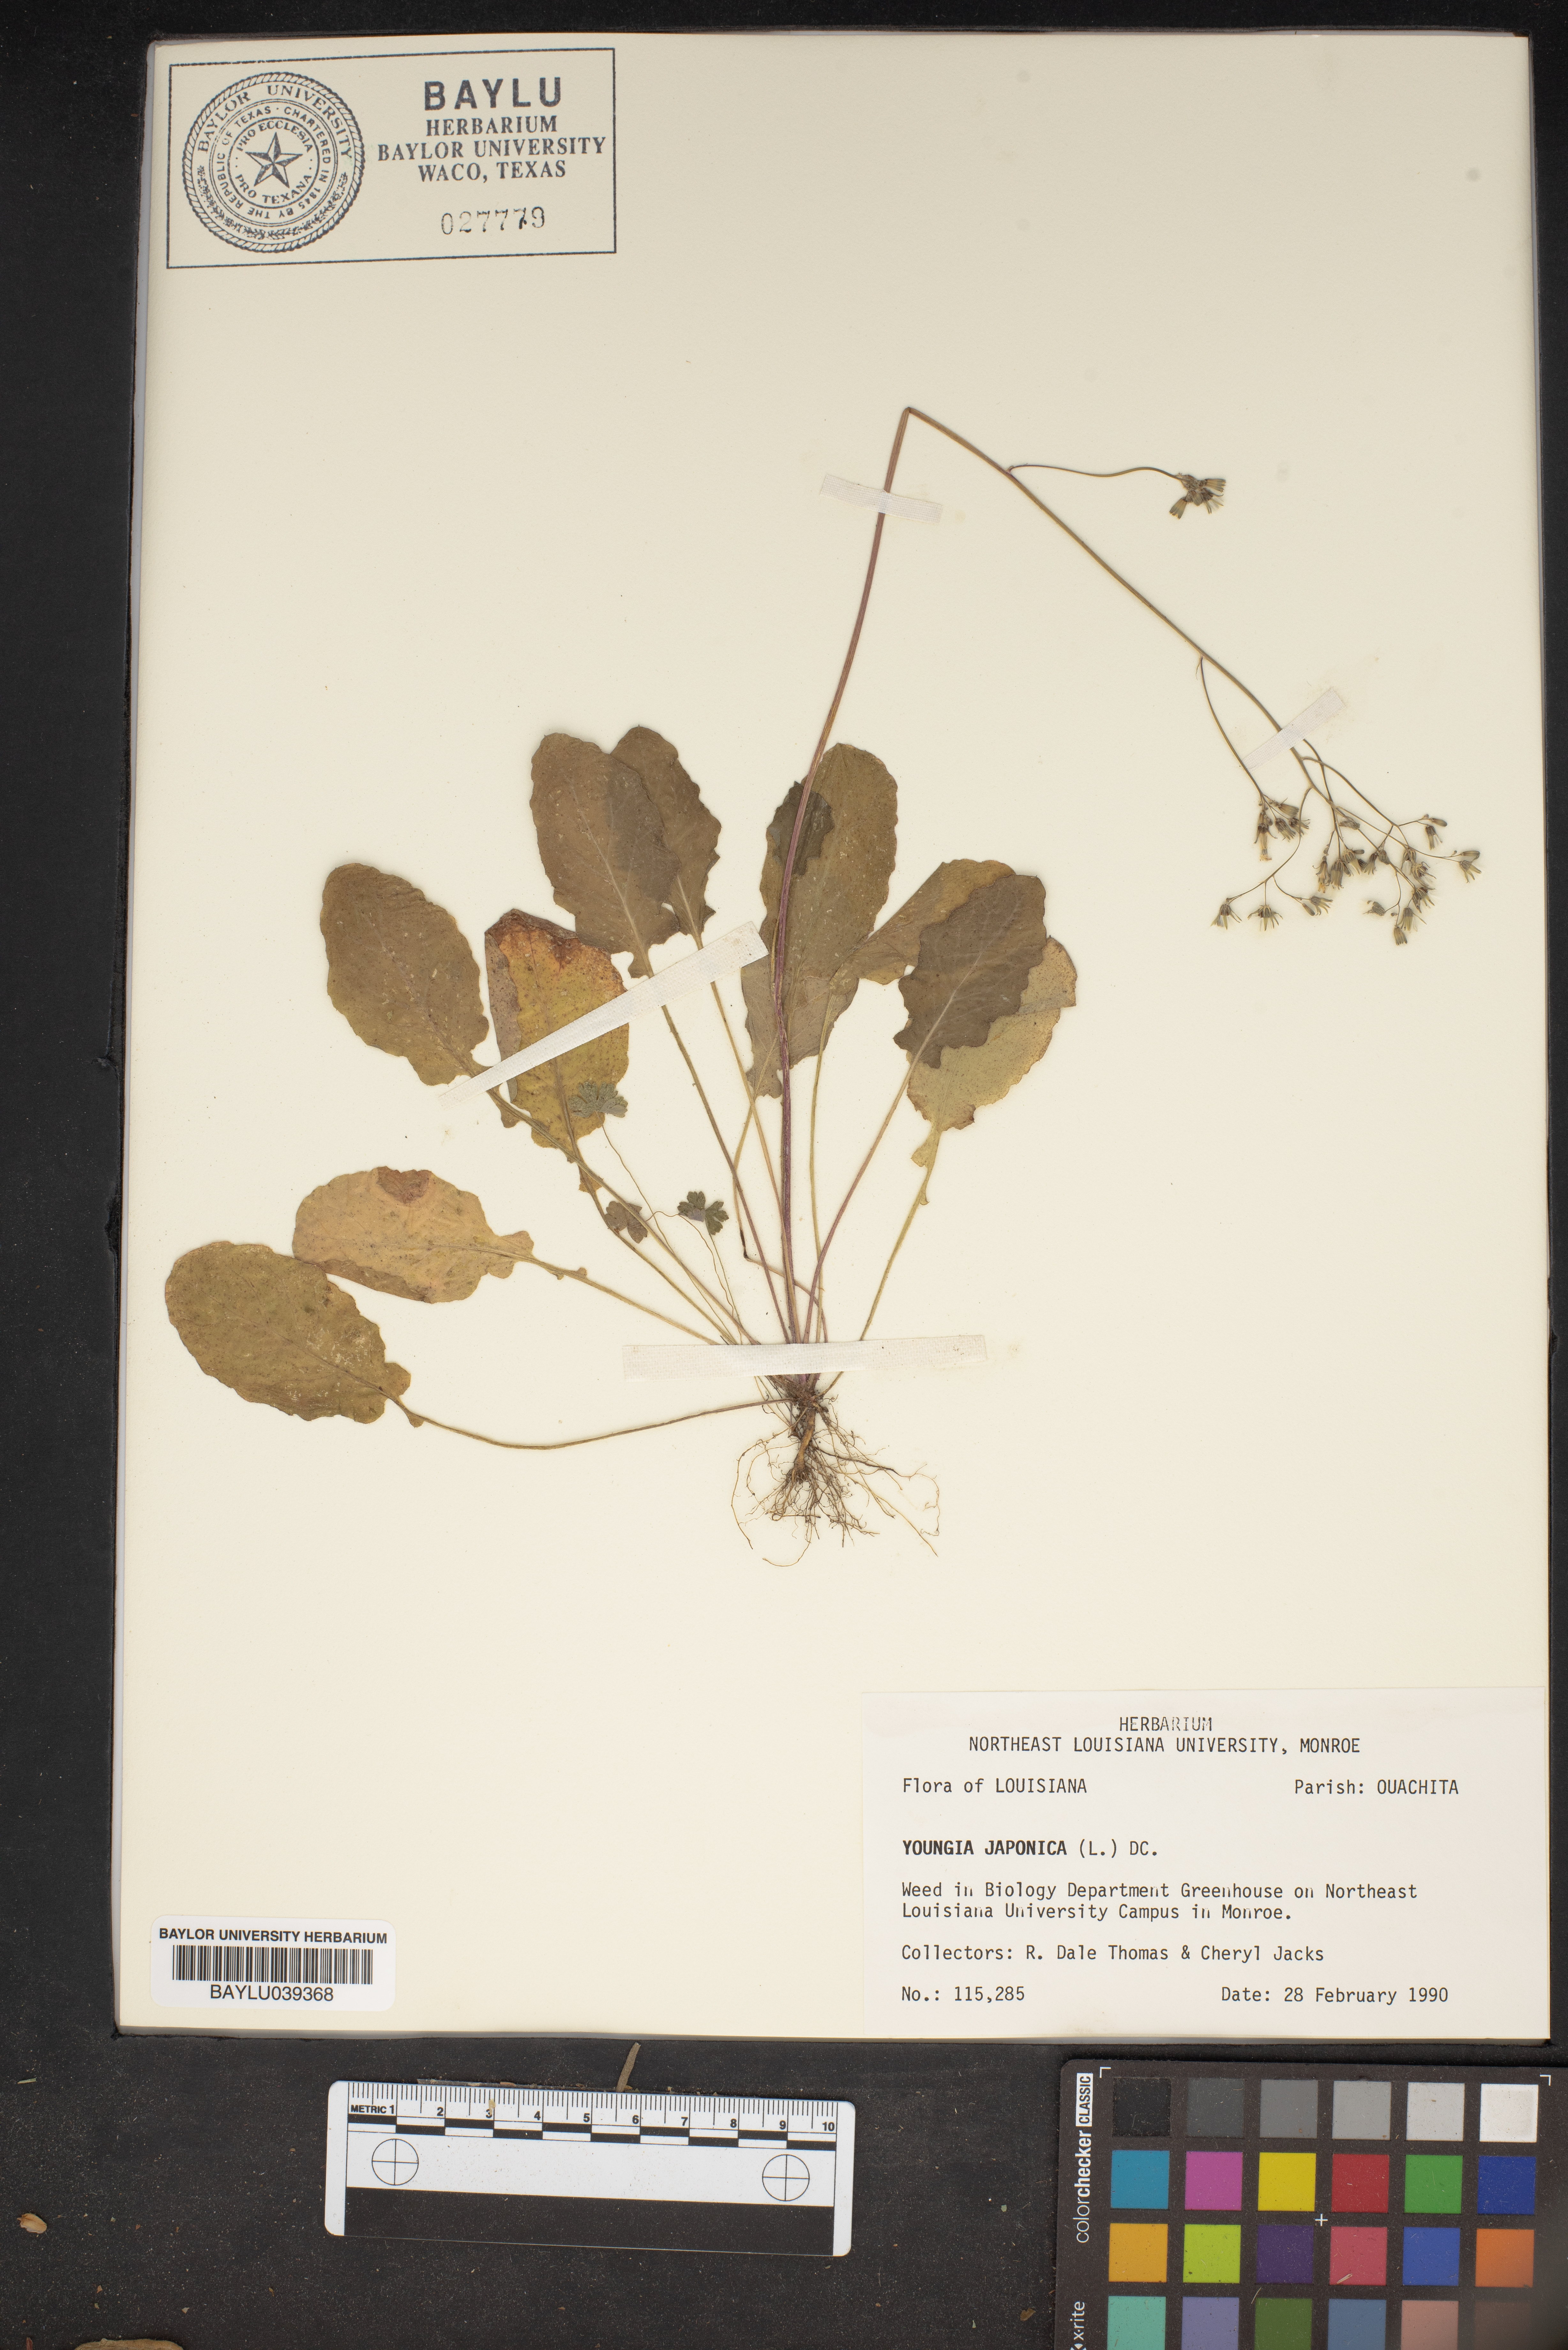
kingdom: Plantae
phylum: Tracheophyta
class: Magnoliopsida
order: Asterales
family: Asteraceae
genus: Youngia
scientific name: Youngia japonica
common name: Oriental false hawksbeard
